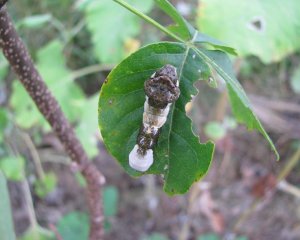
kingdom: Animalia
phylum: Arthropoda
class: Insecta
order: Lepidoptera
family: Papilionidae
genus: Papilio
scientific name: Papilio cresphontes
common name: Eastern Giant Swallowtail
